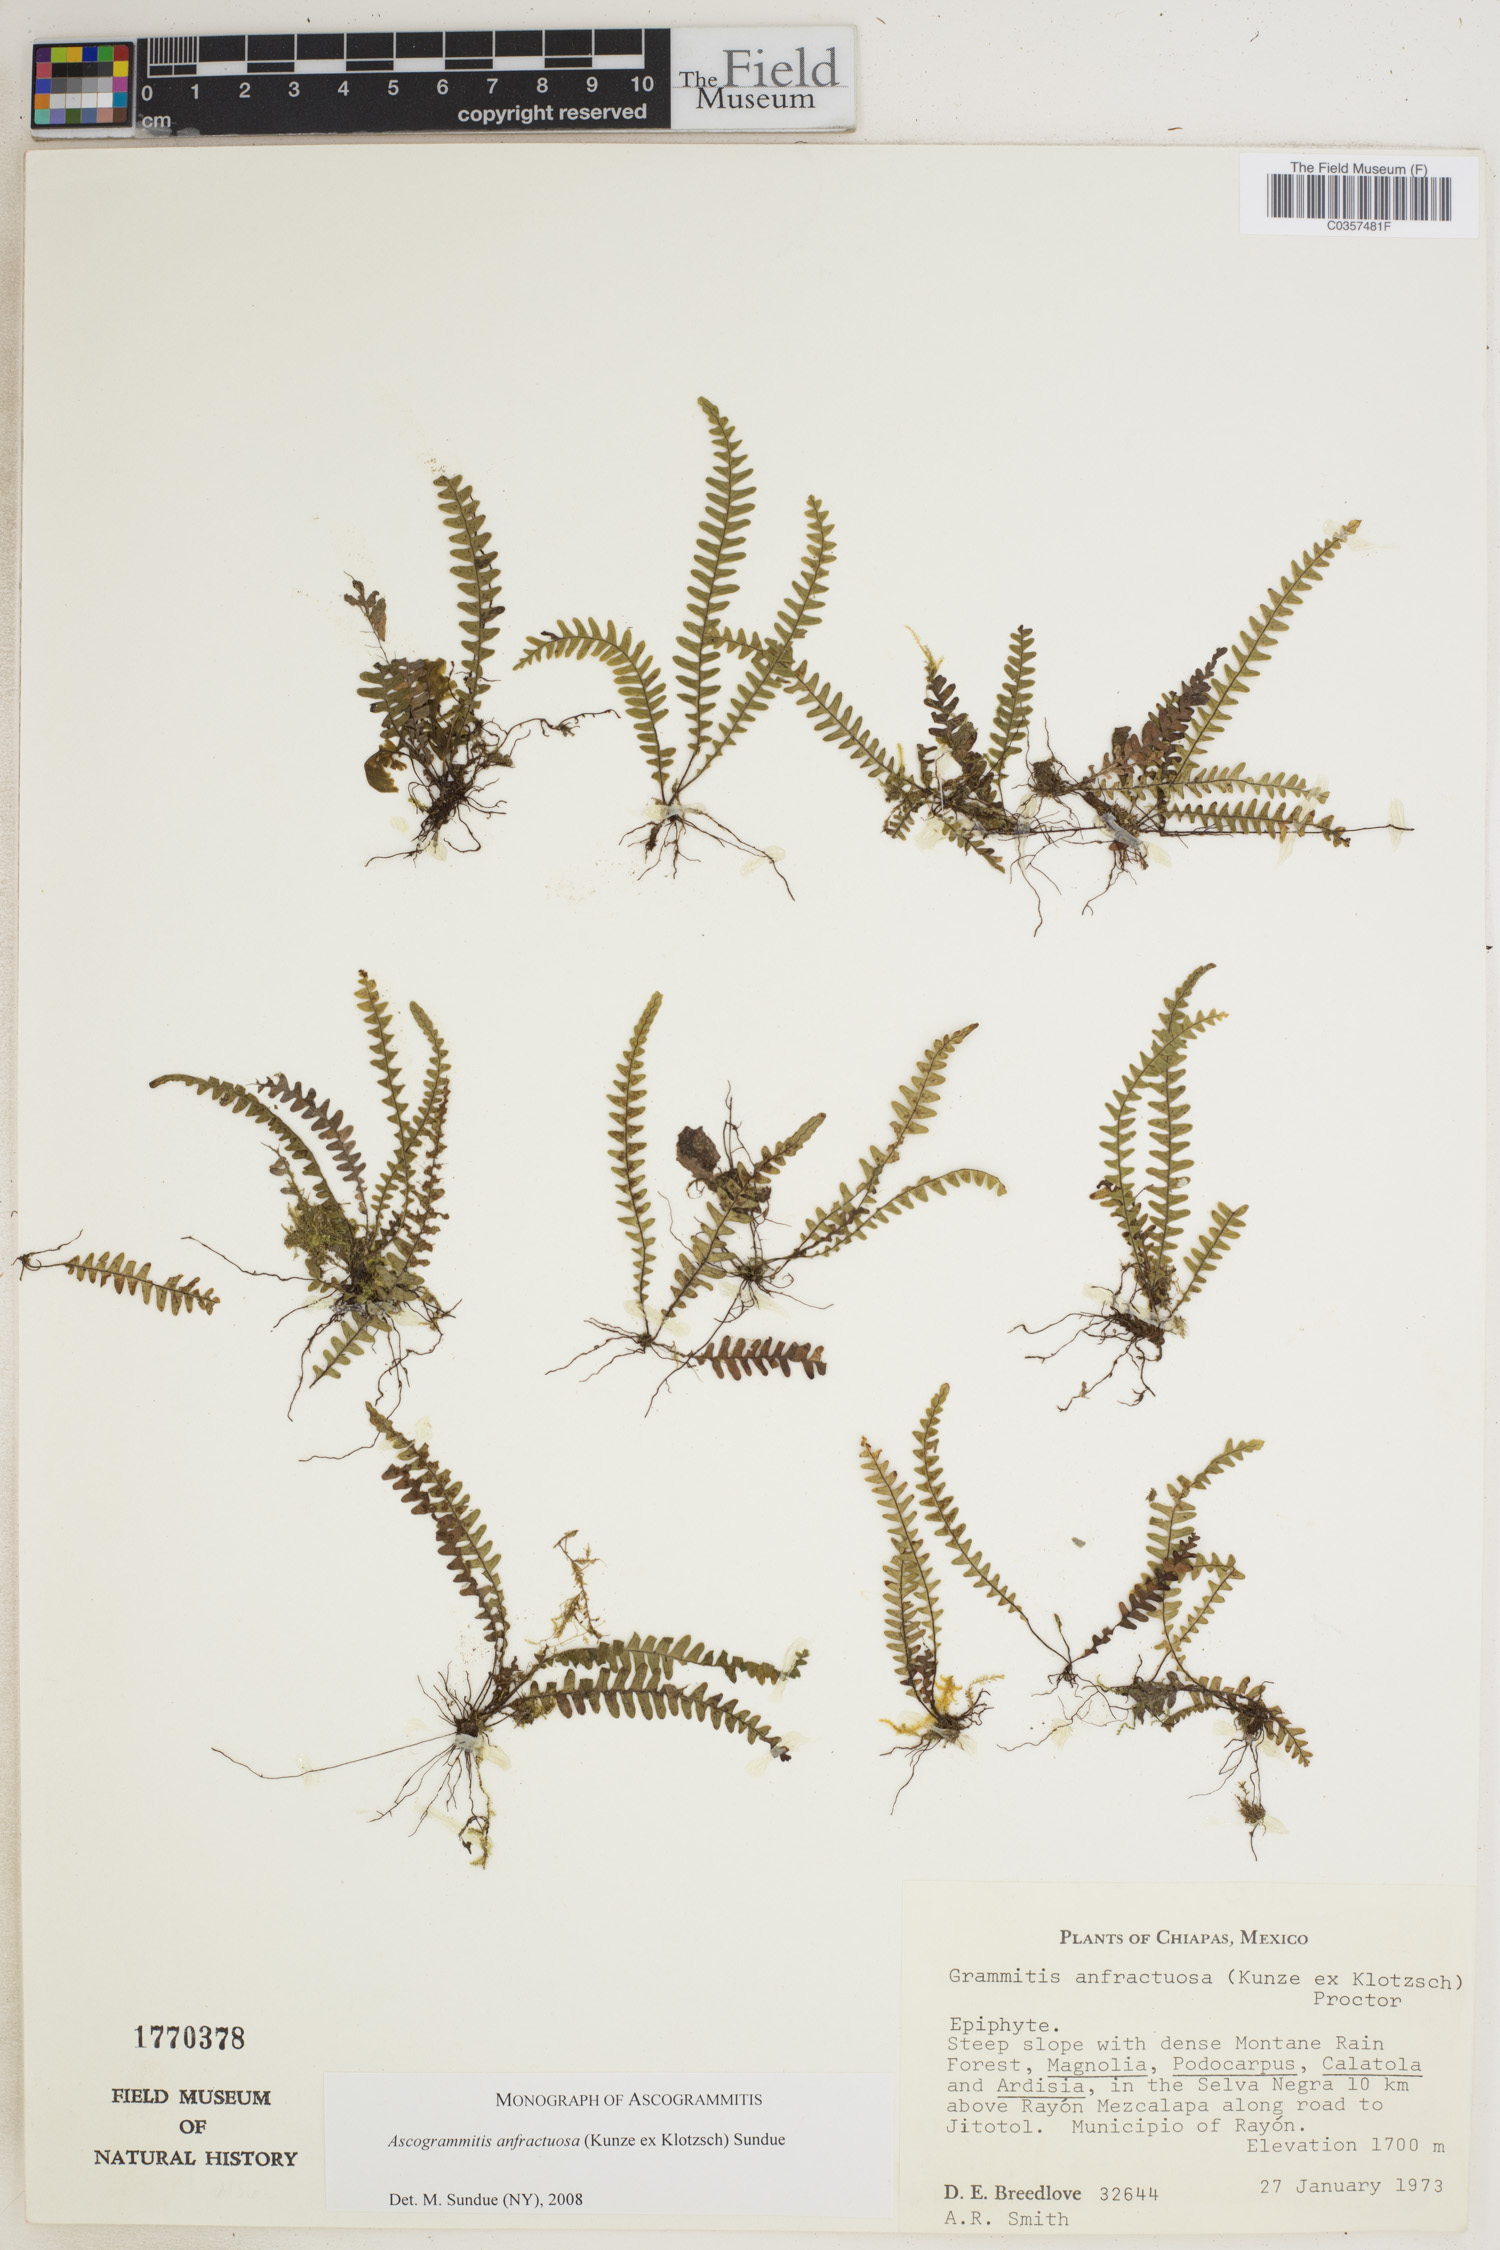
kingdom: Plantae
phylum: Tracheophyta
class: Polypodiopsida
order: Polypodiales
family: Polypodiaceae
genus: Ascogrammitis
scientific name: Ascogrammitis anfractuosa
